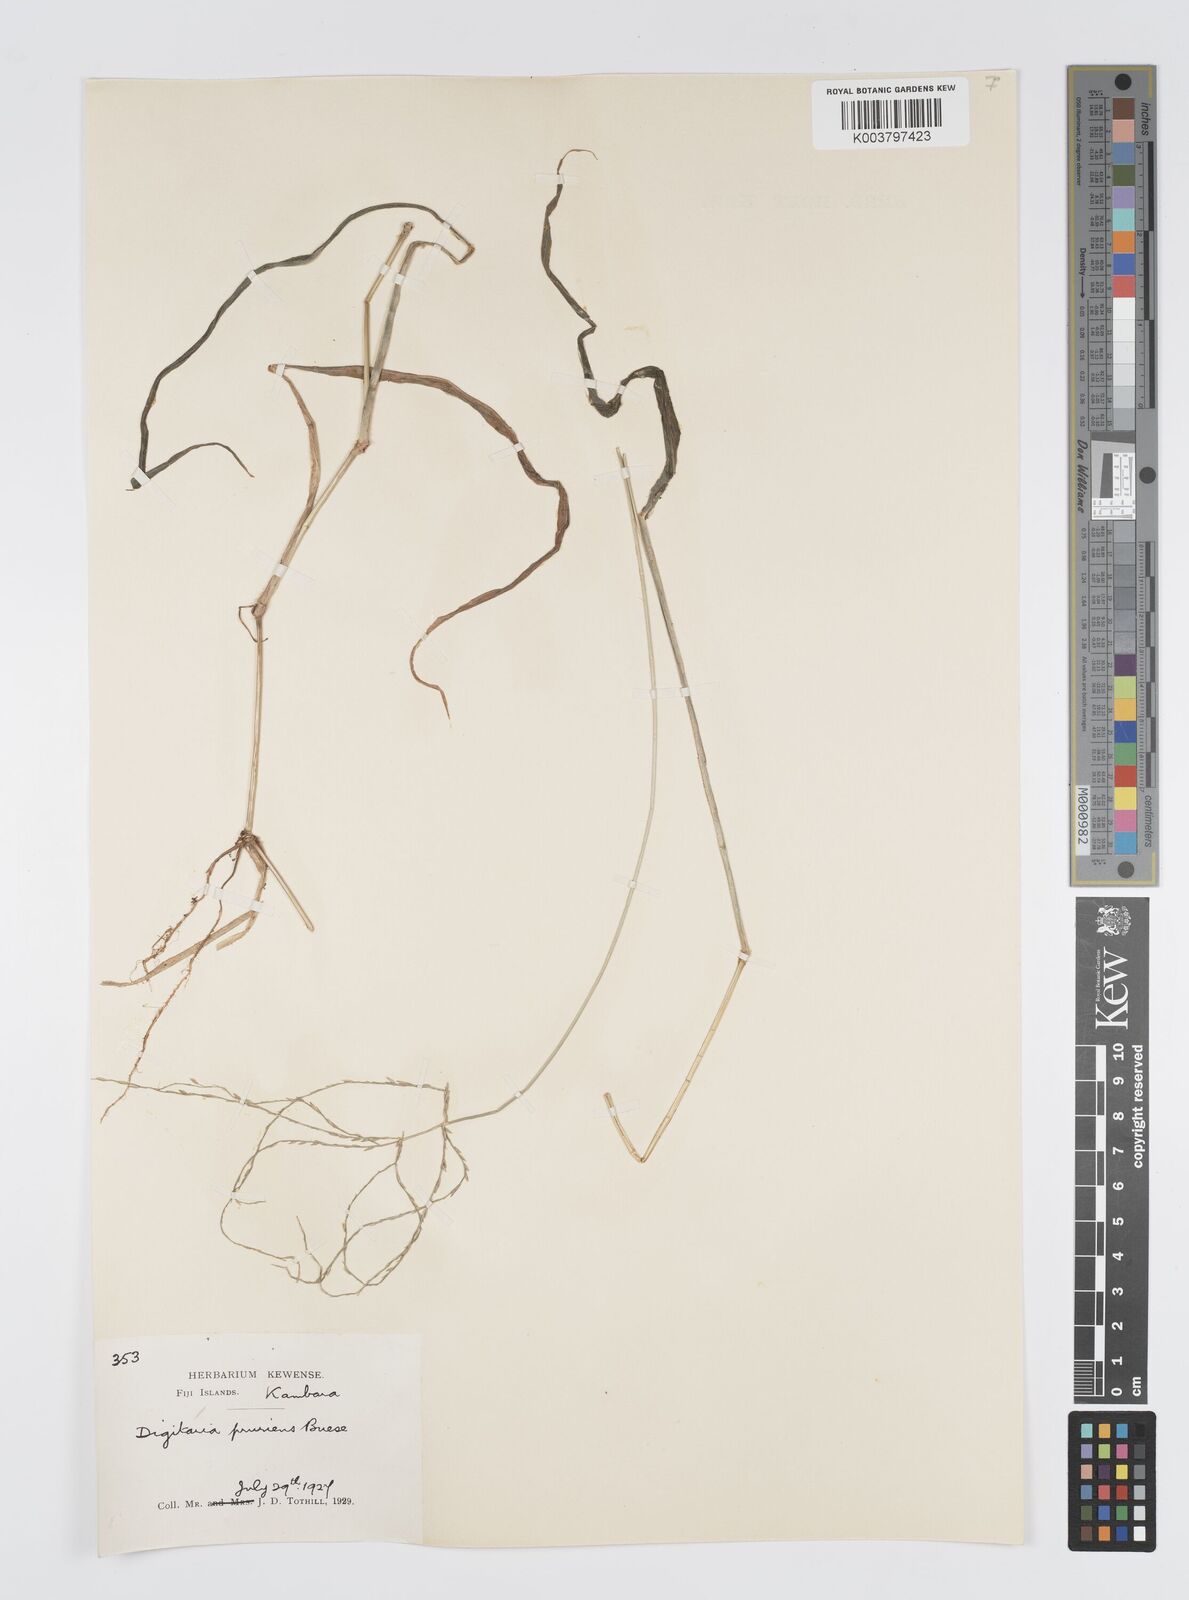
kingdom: Plantae
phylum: Tracheophyta
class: Liliopsida
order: Poales
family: Poaceae
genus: Digitaria
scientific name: Digitaria setigera
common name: East indian crabgrass
